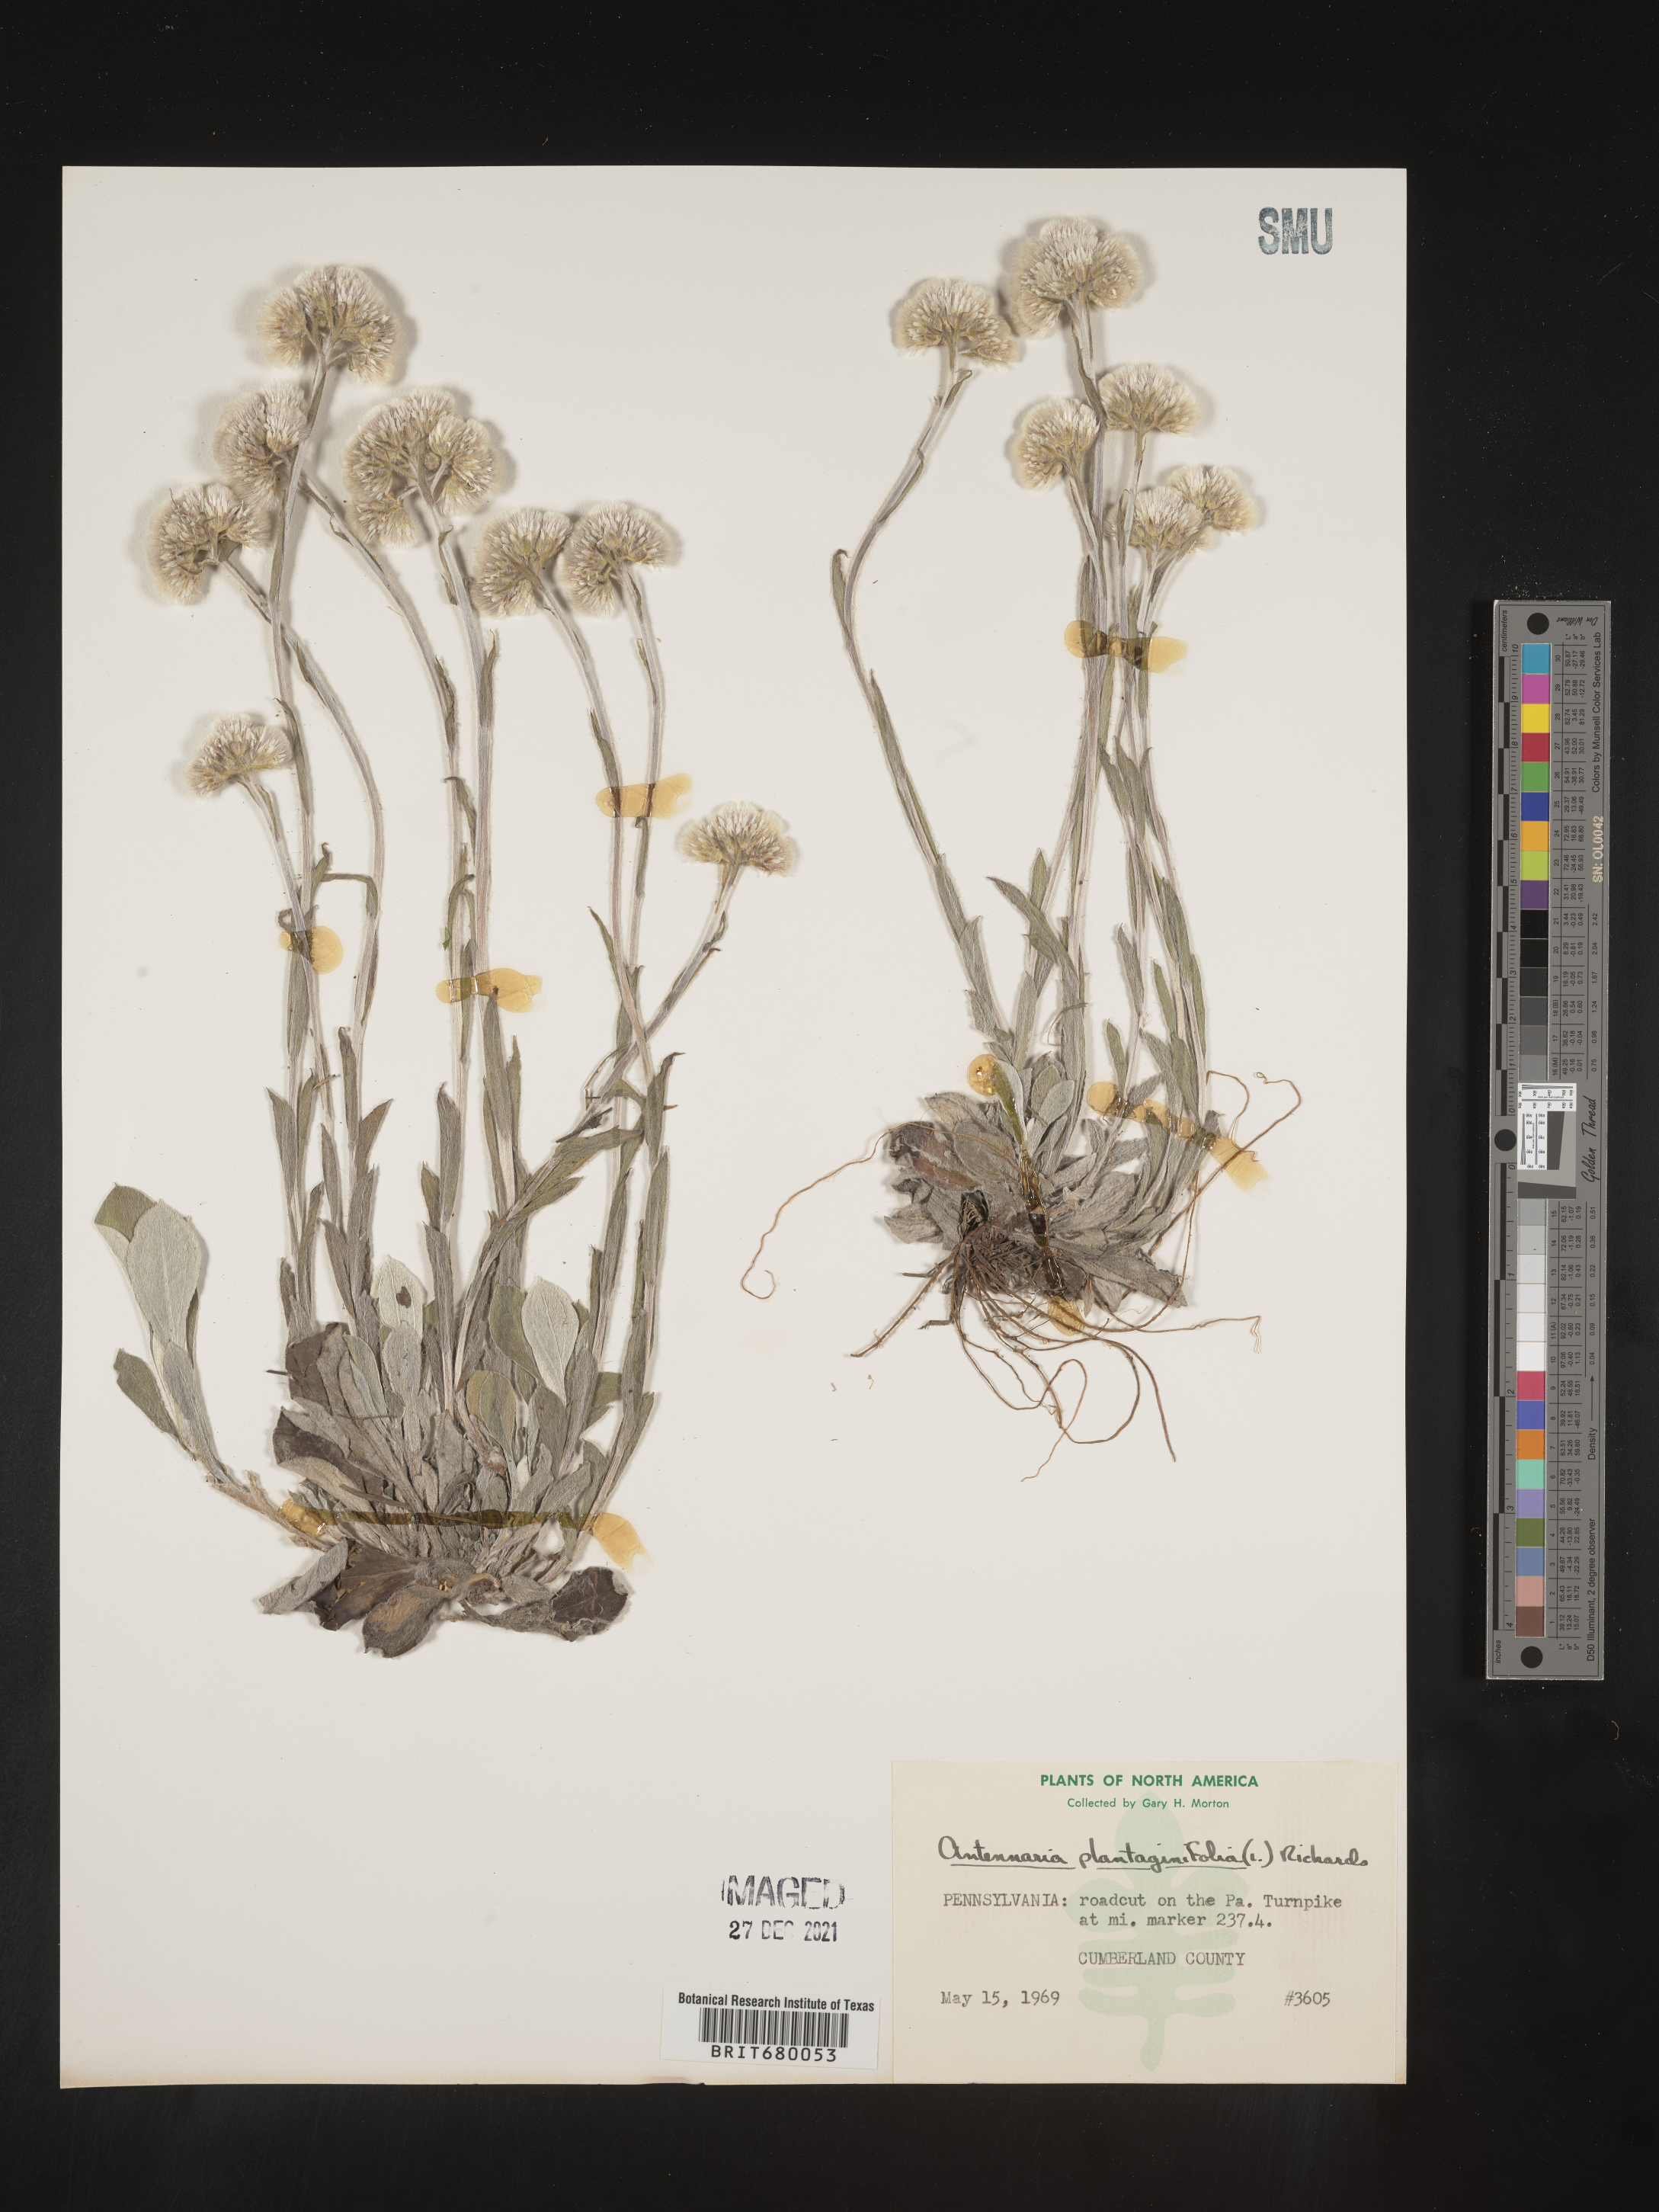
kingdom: Plantae
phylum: Tracheophyta
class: Magnoliopsida
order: Asterales
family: Asteraceae
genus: Antennaria
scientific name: Antennaria plantaginifolia
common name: Plantain-leaved pussytoes
